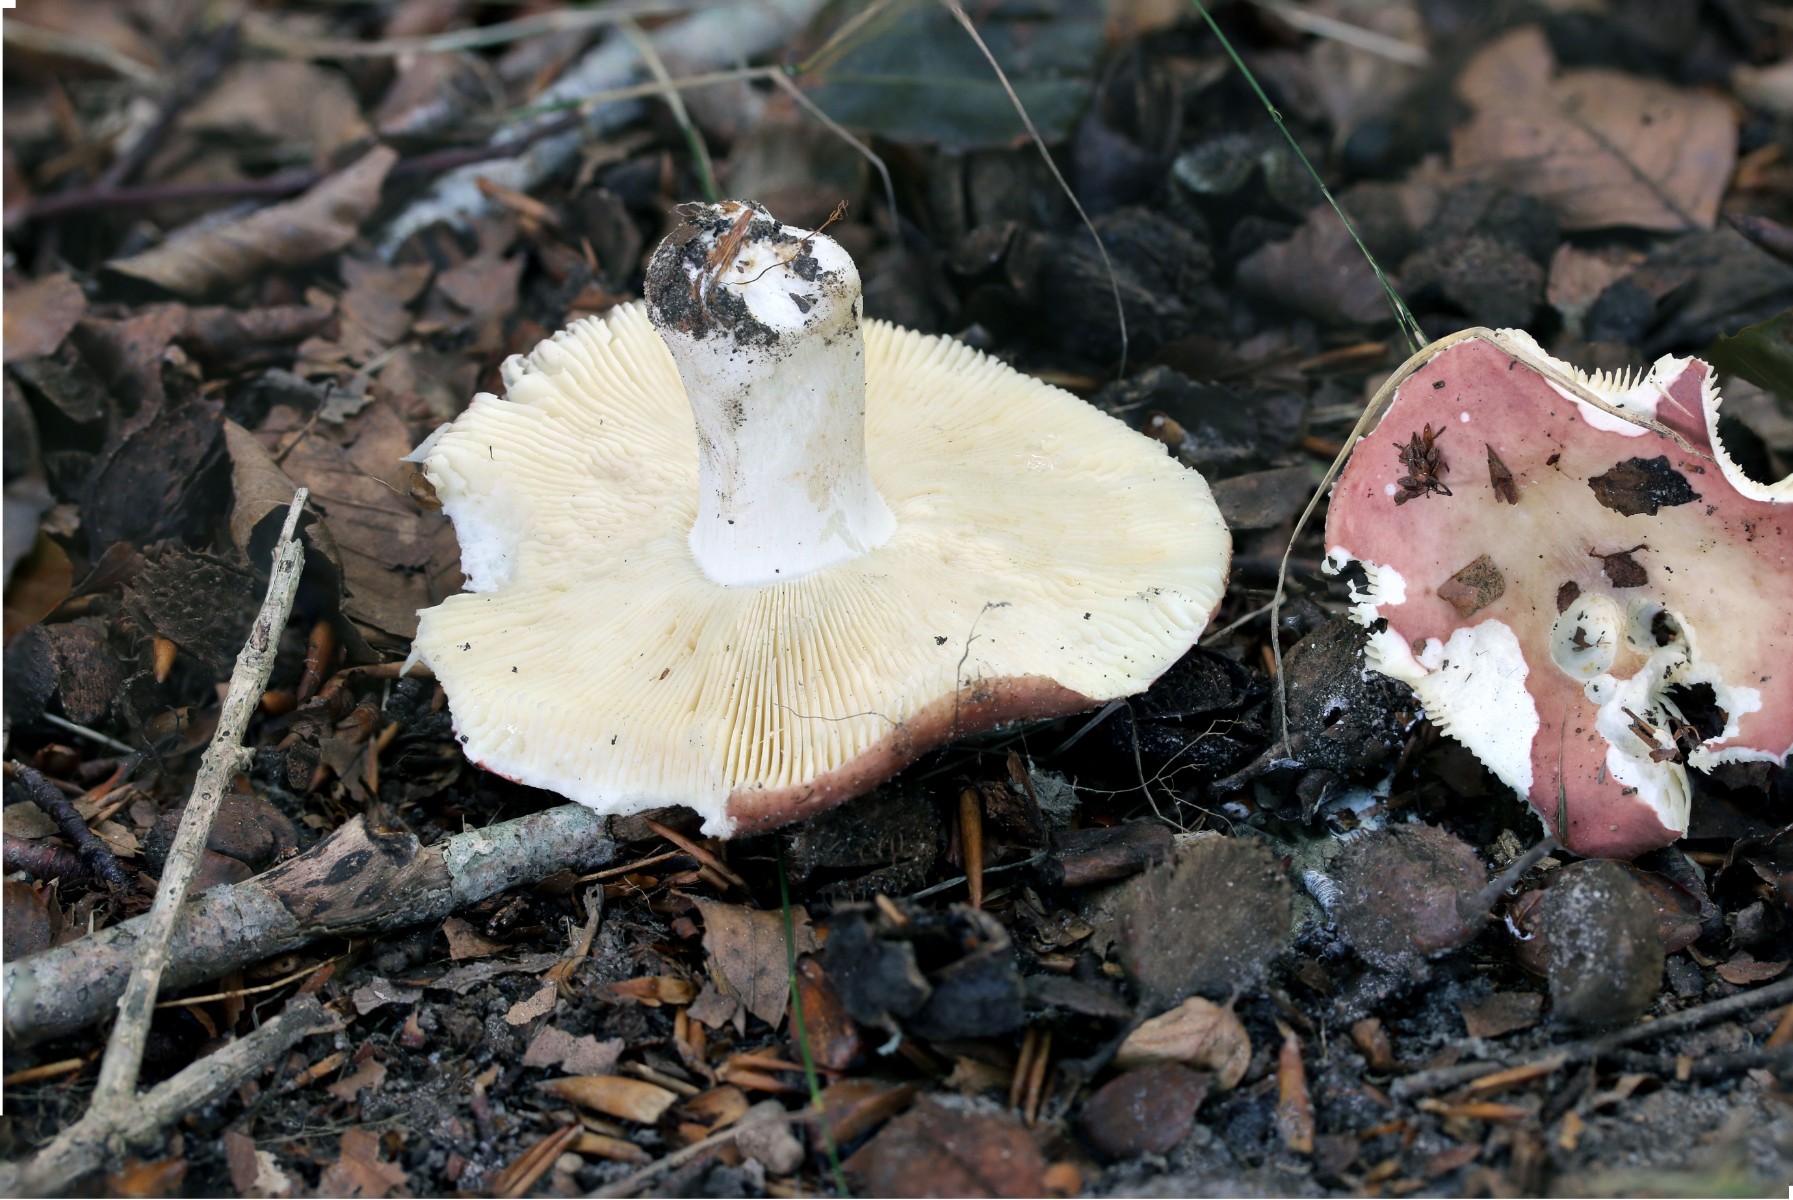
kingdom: Fungi
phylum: Basidiomycota
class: Agaricomycetes
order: Russulales
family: Russulaceae
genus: Russula
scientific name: Russula curtipes
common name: kortstokket skørhat
